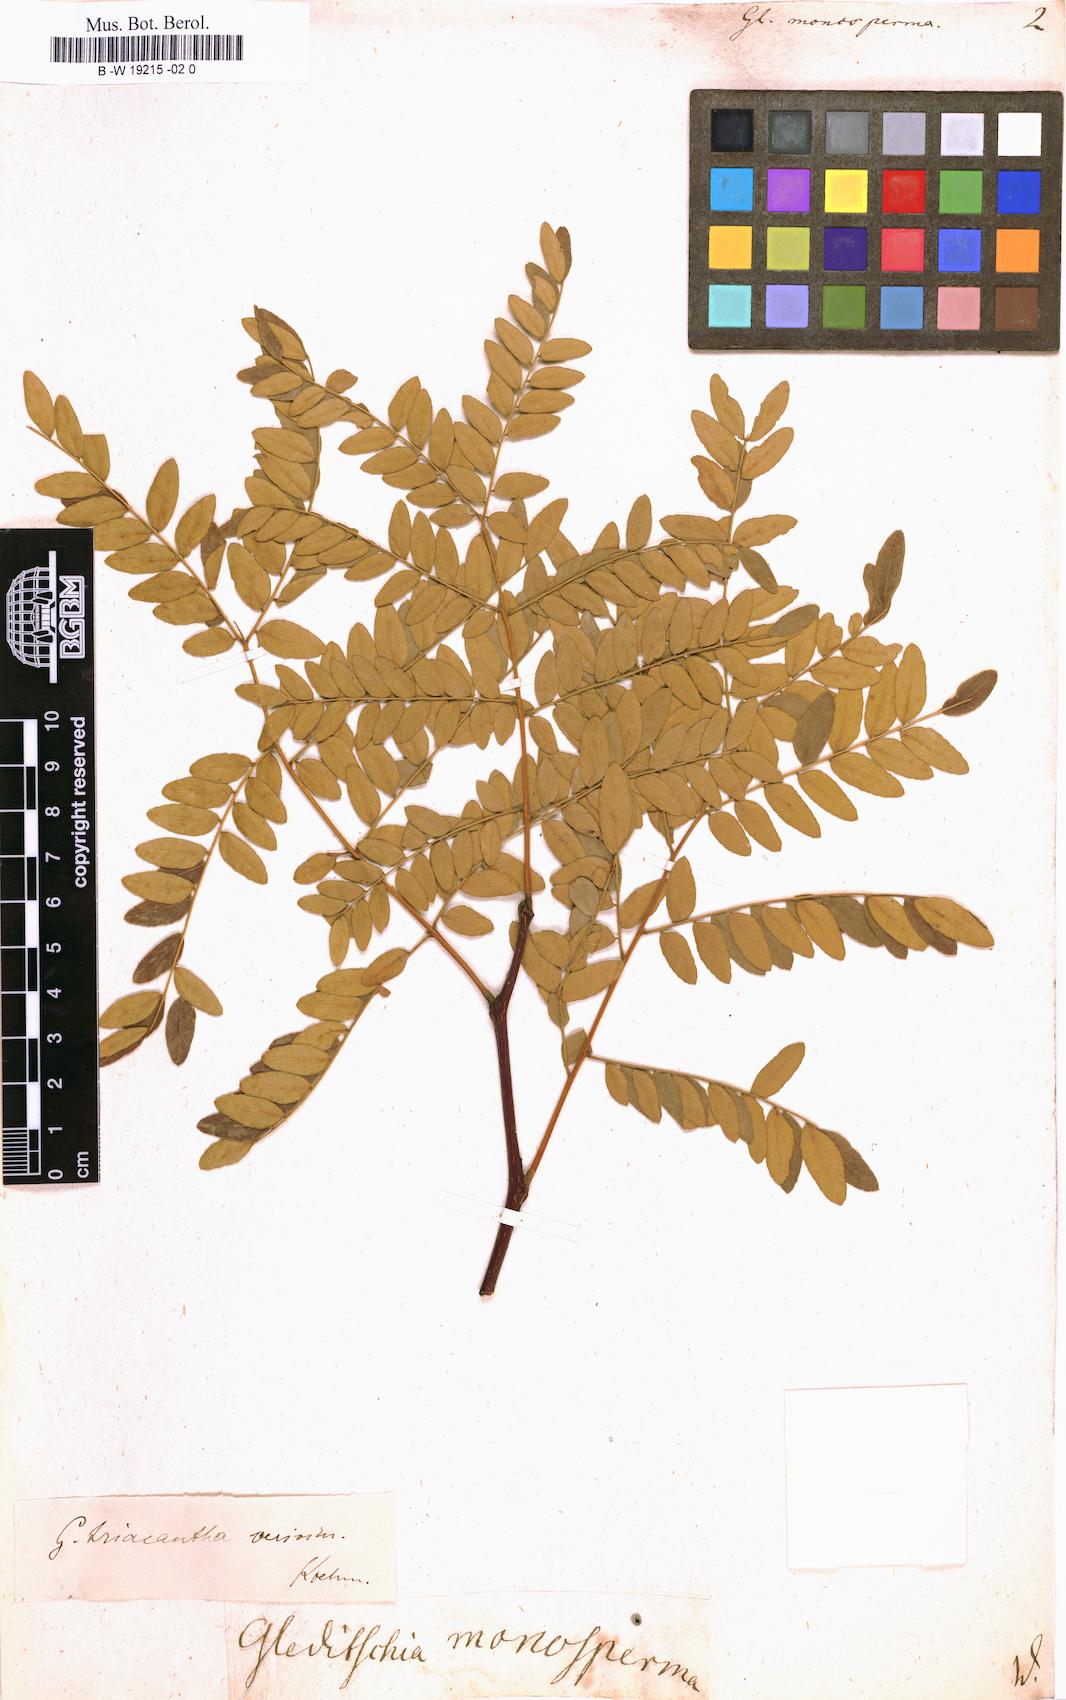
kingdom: Plantae
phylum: Tracheophyta
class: Magnoliopsida
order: Fabales
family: Fabaceae
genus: Gleditsia
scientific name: Gleditsia aquatica
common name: Swamp-locust
